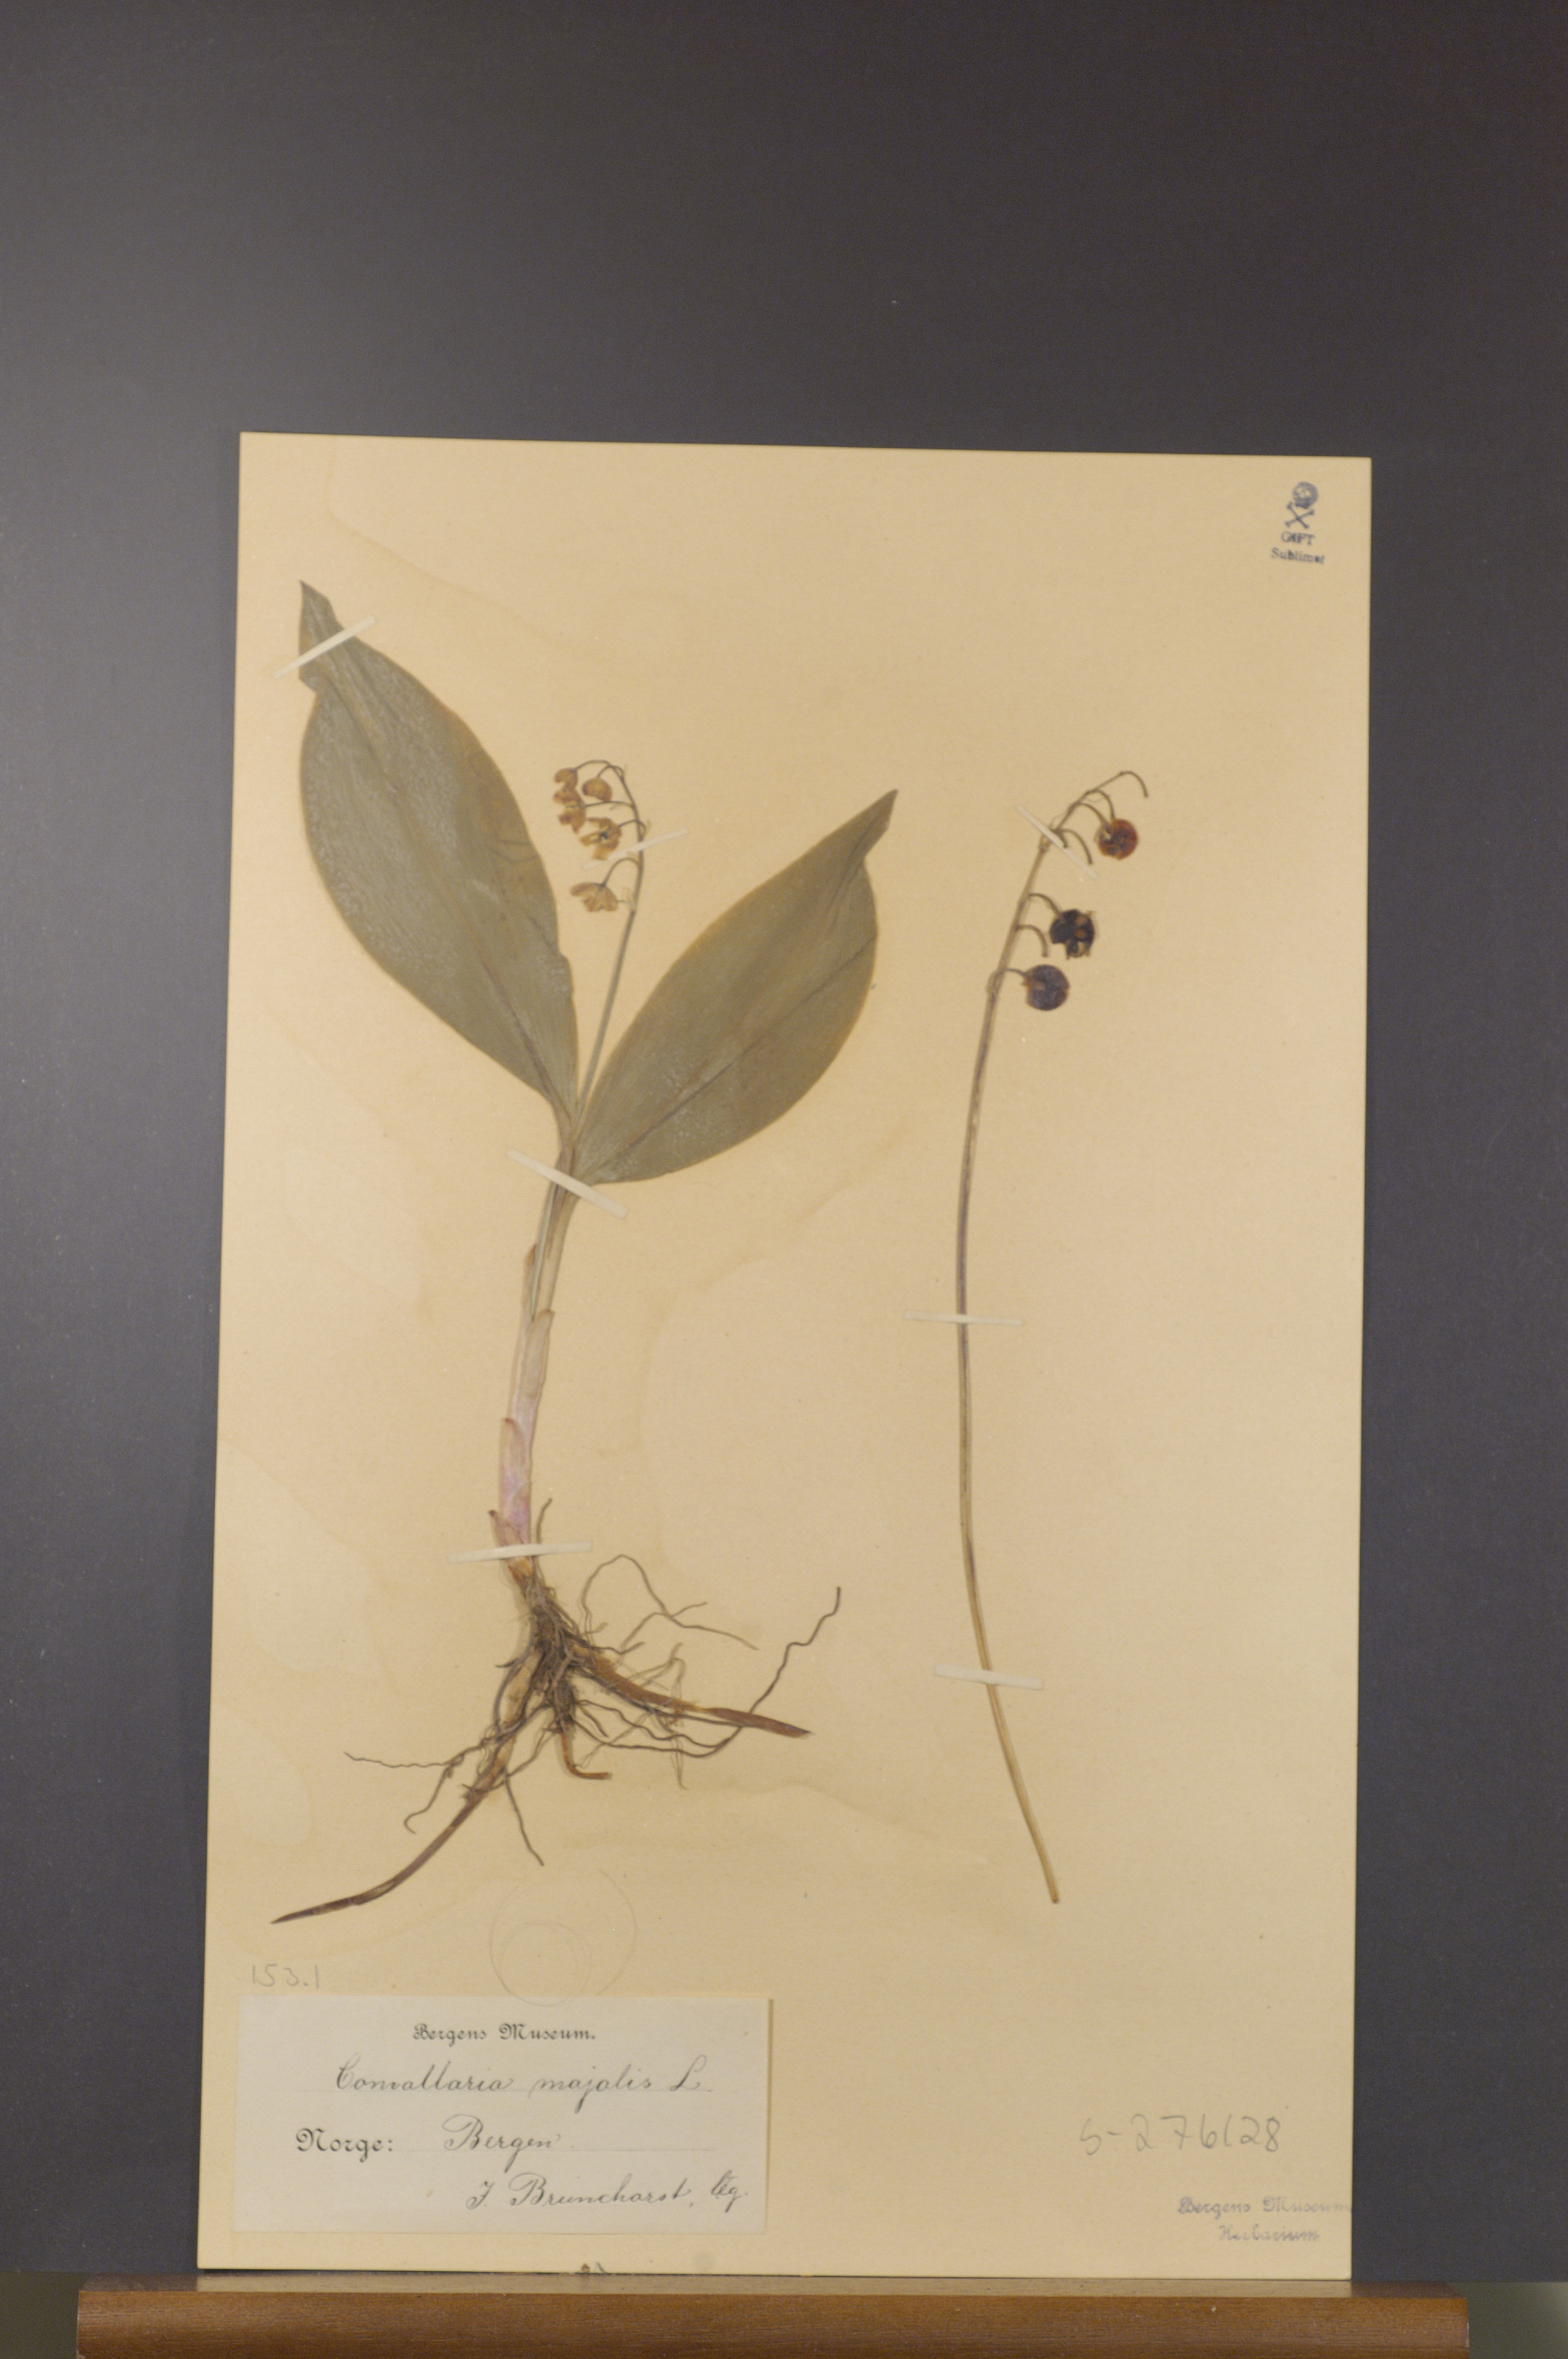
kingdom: Plantae
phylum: Tracheophyta
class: Liliopsida
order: Asparagales
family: Asparagaceae
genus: Convallaria
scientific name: Convallaria majalis
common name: Lily-of-the-valley
